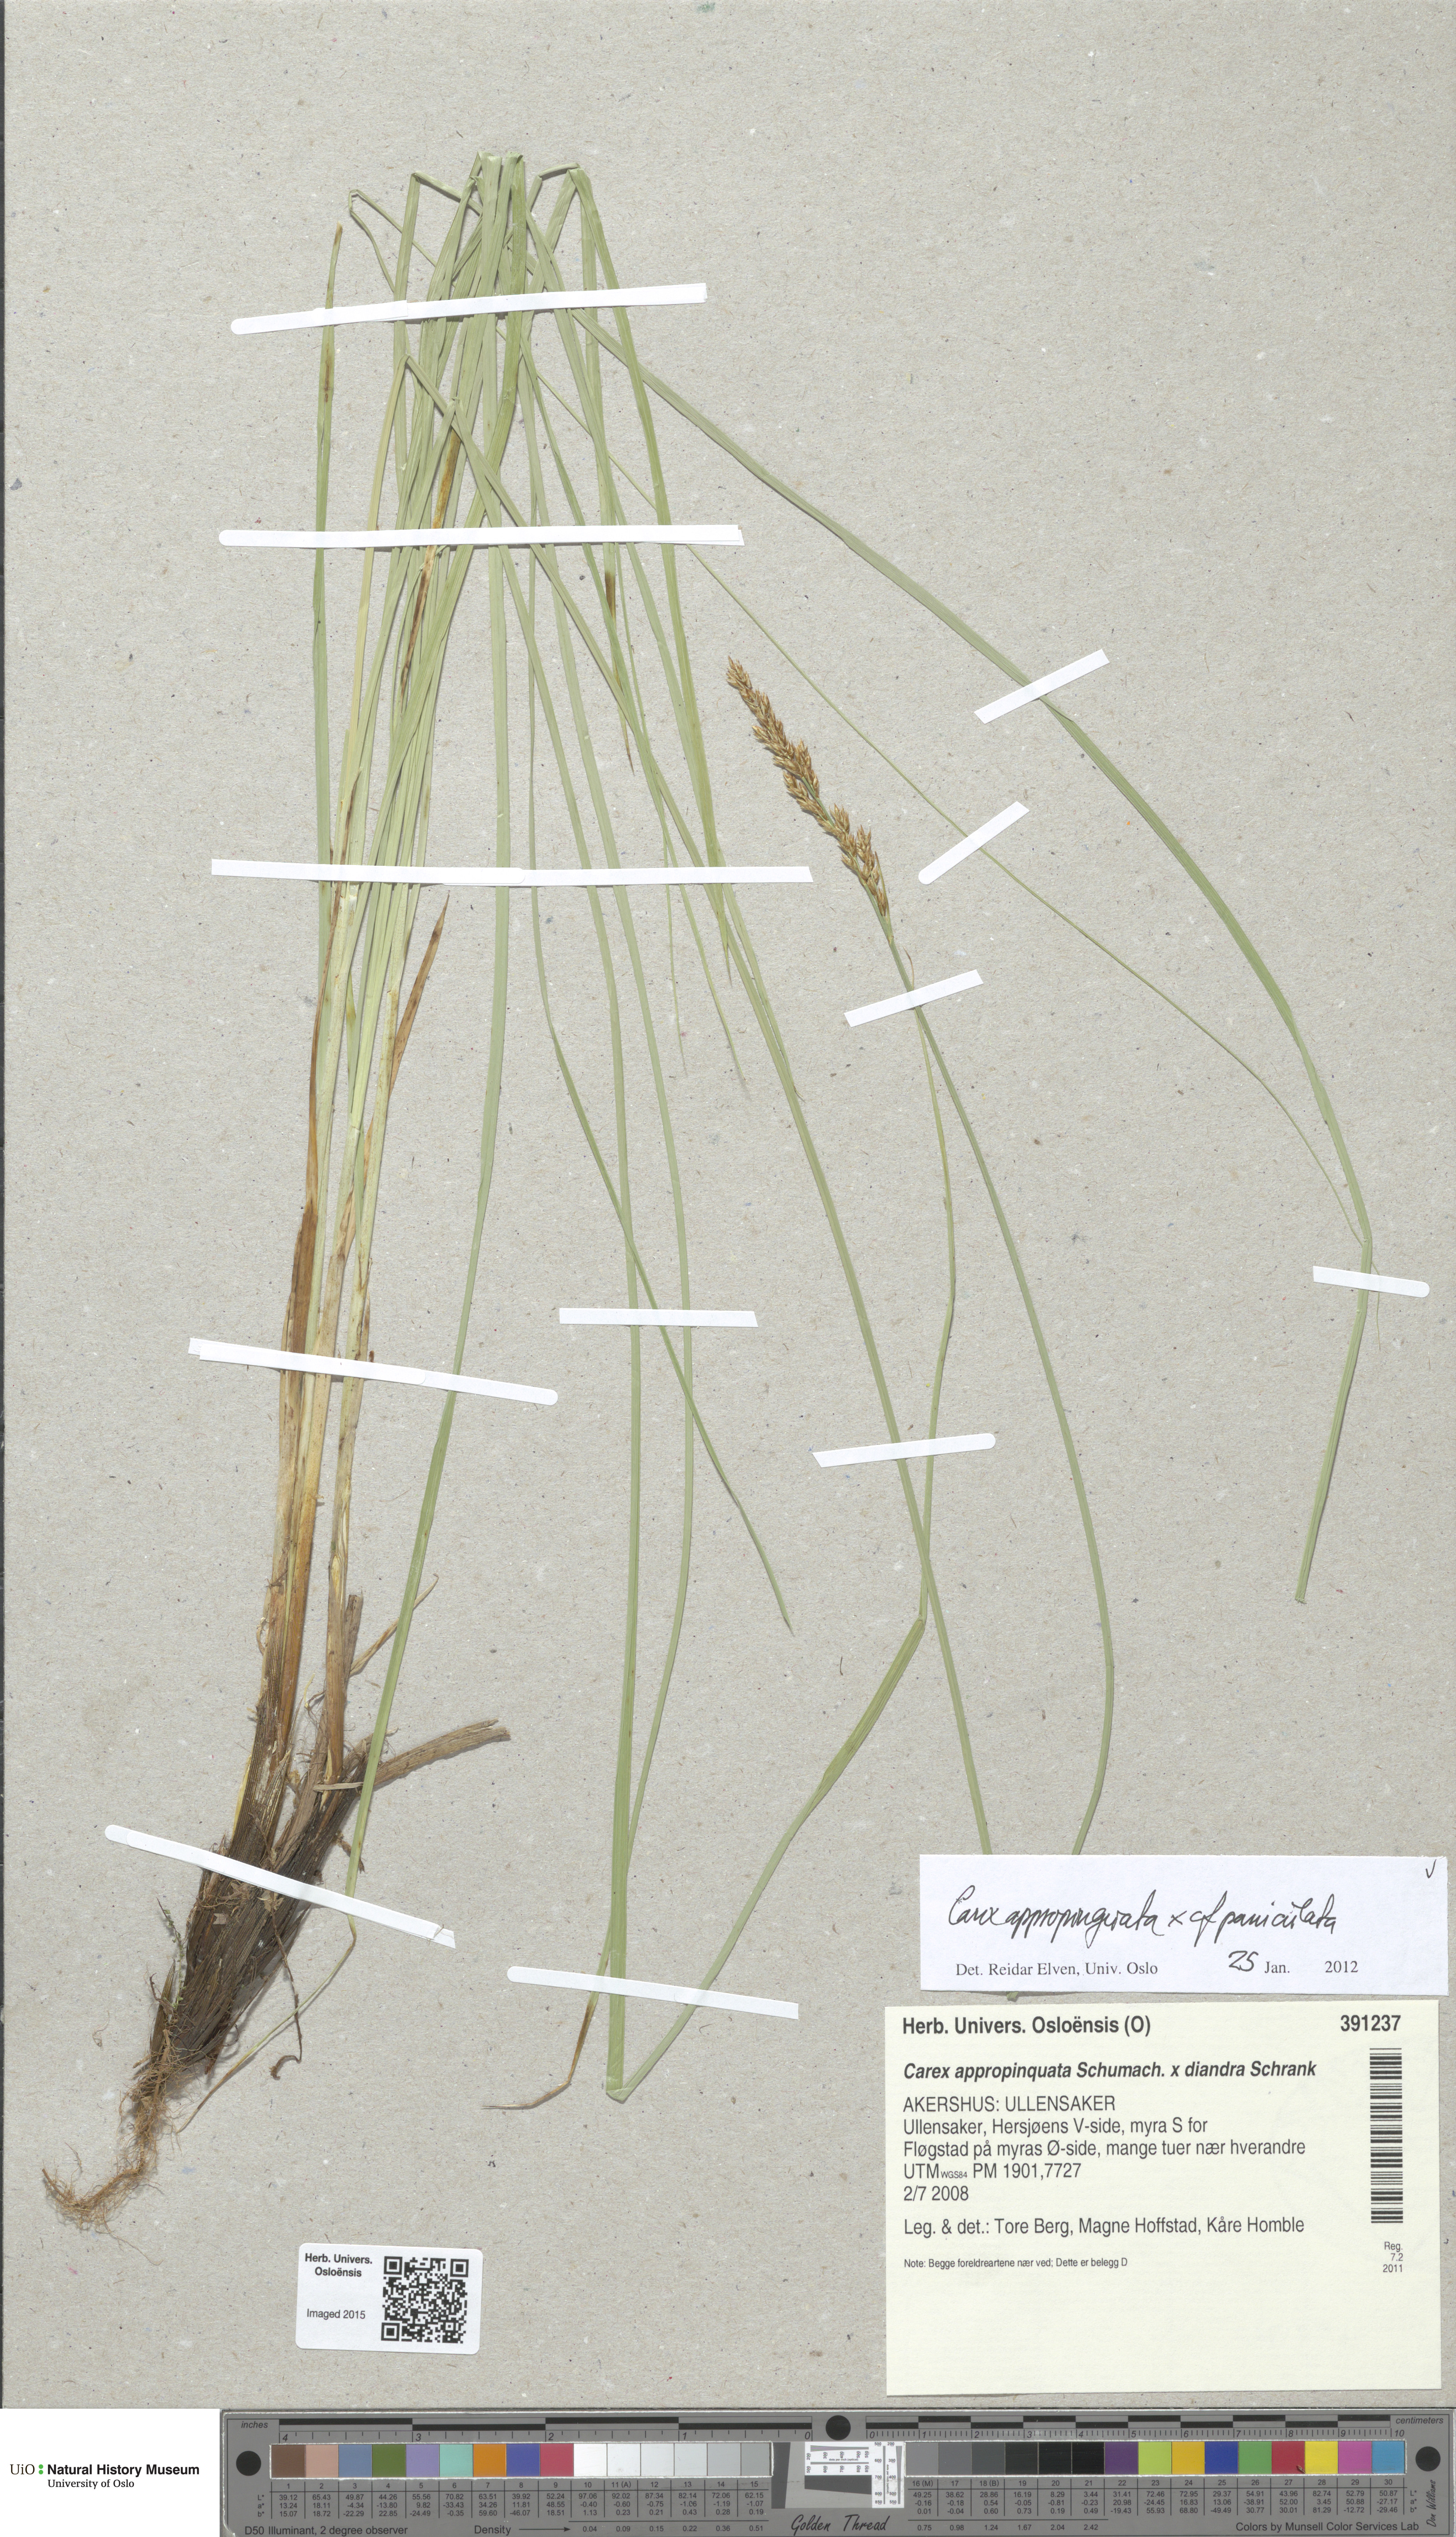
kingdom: Plantae
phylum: Tracheophyta
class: Liliopsida
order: Poales
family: Cyperaceae
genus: Carex
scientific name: Carex
